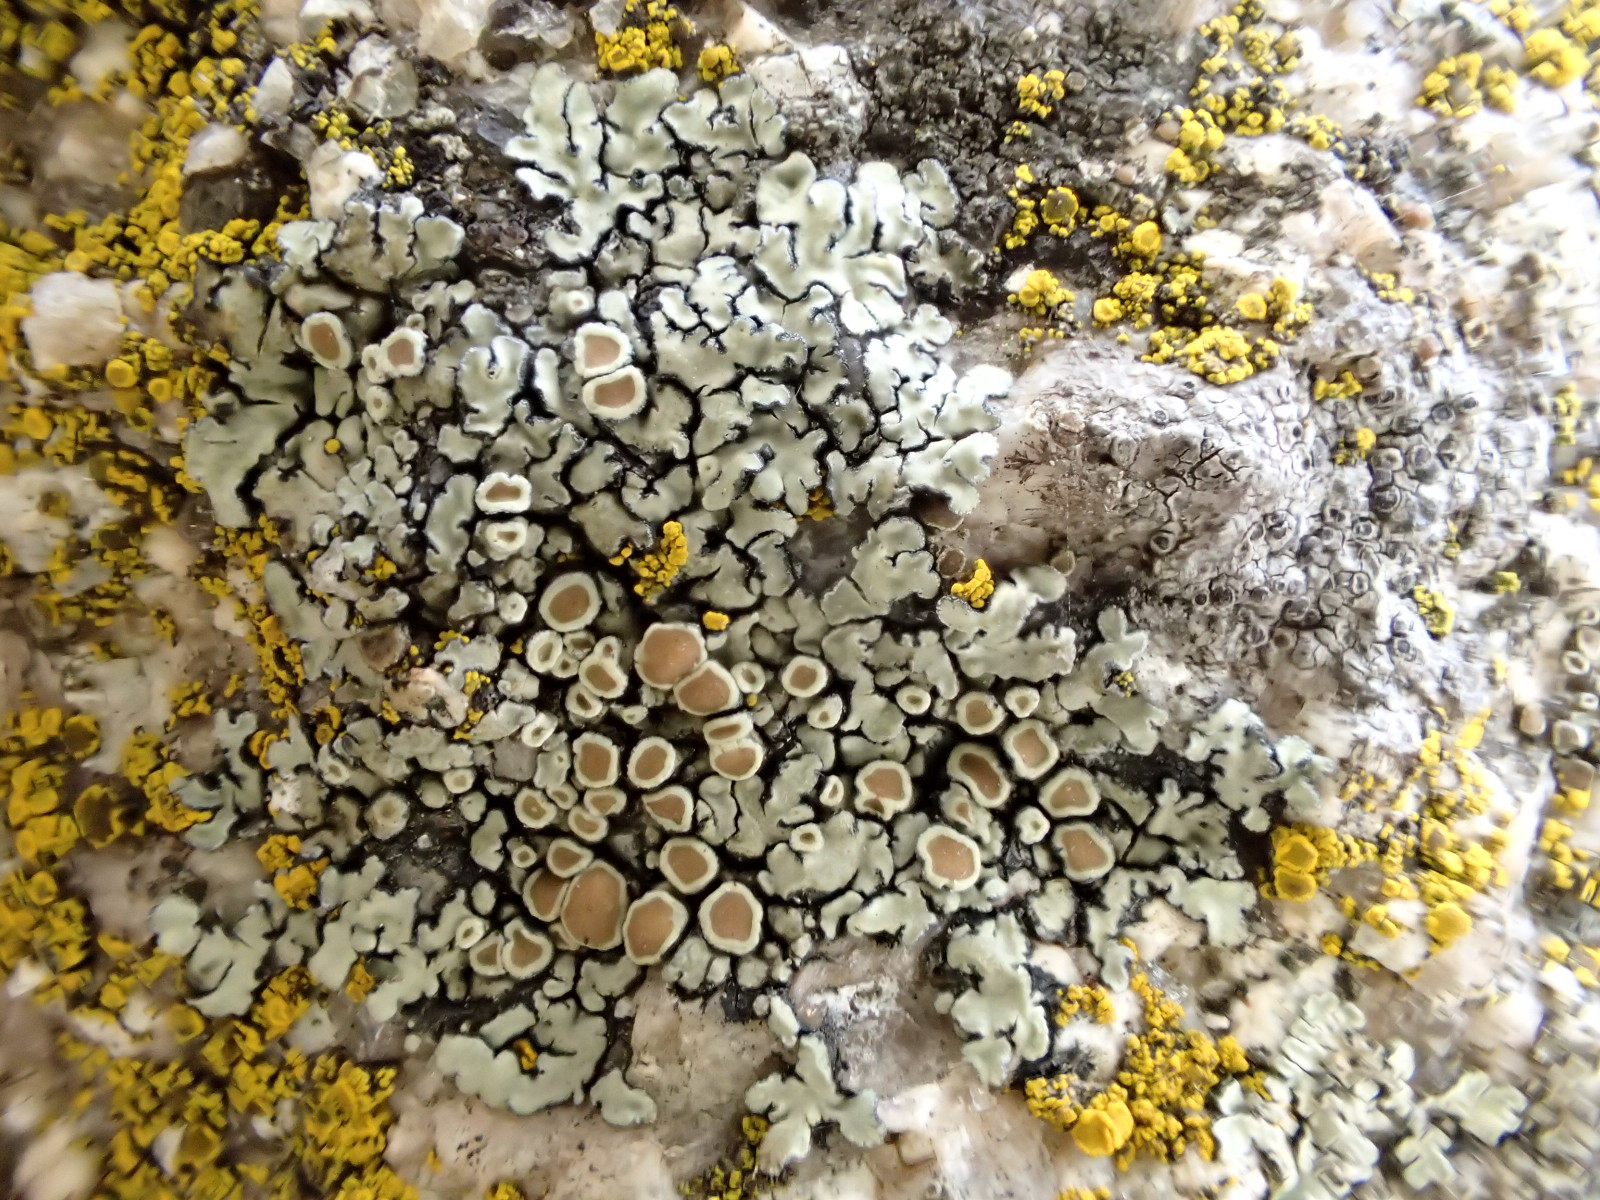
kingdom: Fungi
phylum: Ascomycota
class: Lecanoromycetes
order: Lecanorales
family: Lecanoraceae
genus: Protoparmeliopsis
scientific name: Protoparmeliopsis muralis
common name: randfliget kantskivelav
